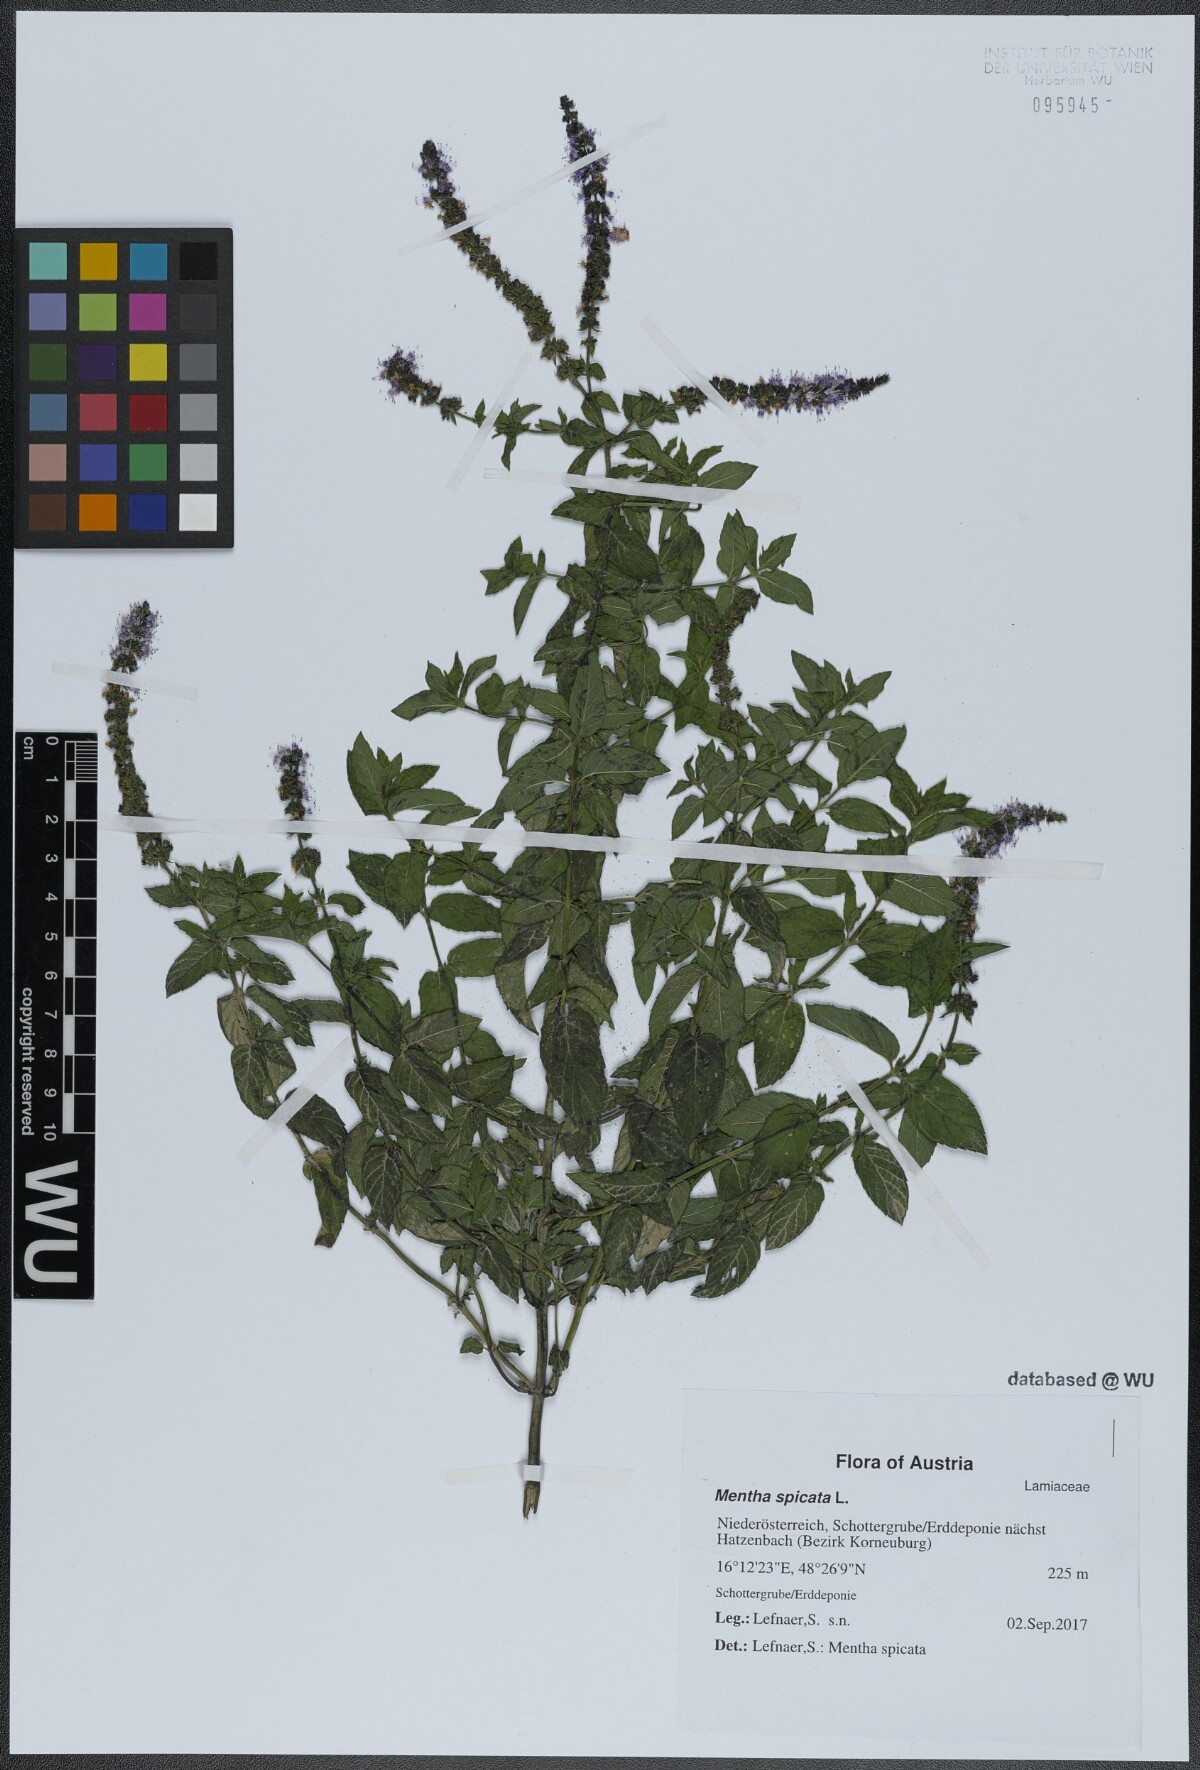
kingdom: Plantae
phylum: Tracheophyta
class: Magnoliopsida
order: Lamiales
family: Lamiaceae
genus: Mentha
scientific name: Mentha spicata
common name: Spearmint
